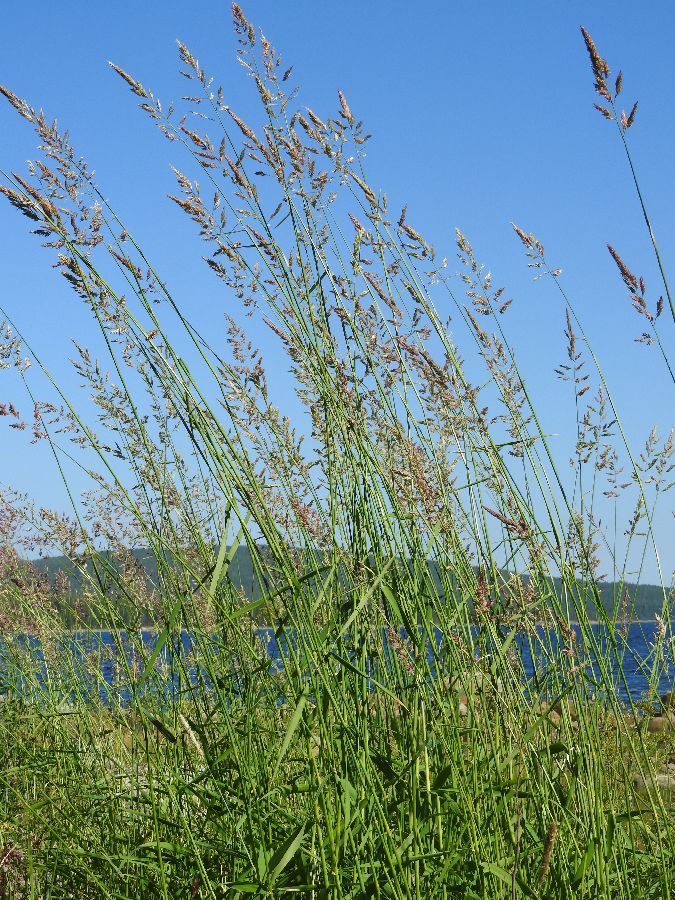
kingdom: Plantae
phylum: Tracheophyta
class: Liliopsida
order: Poales
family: Poaceae
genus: Phalaris
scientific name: Phalaris arundinacea
